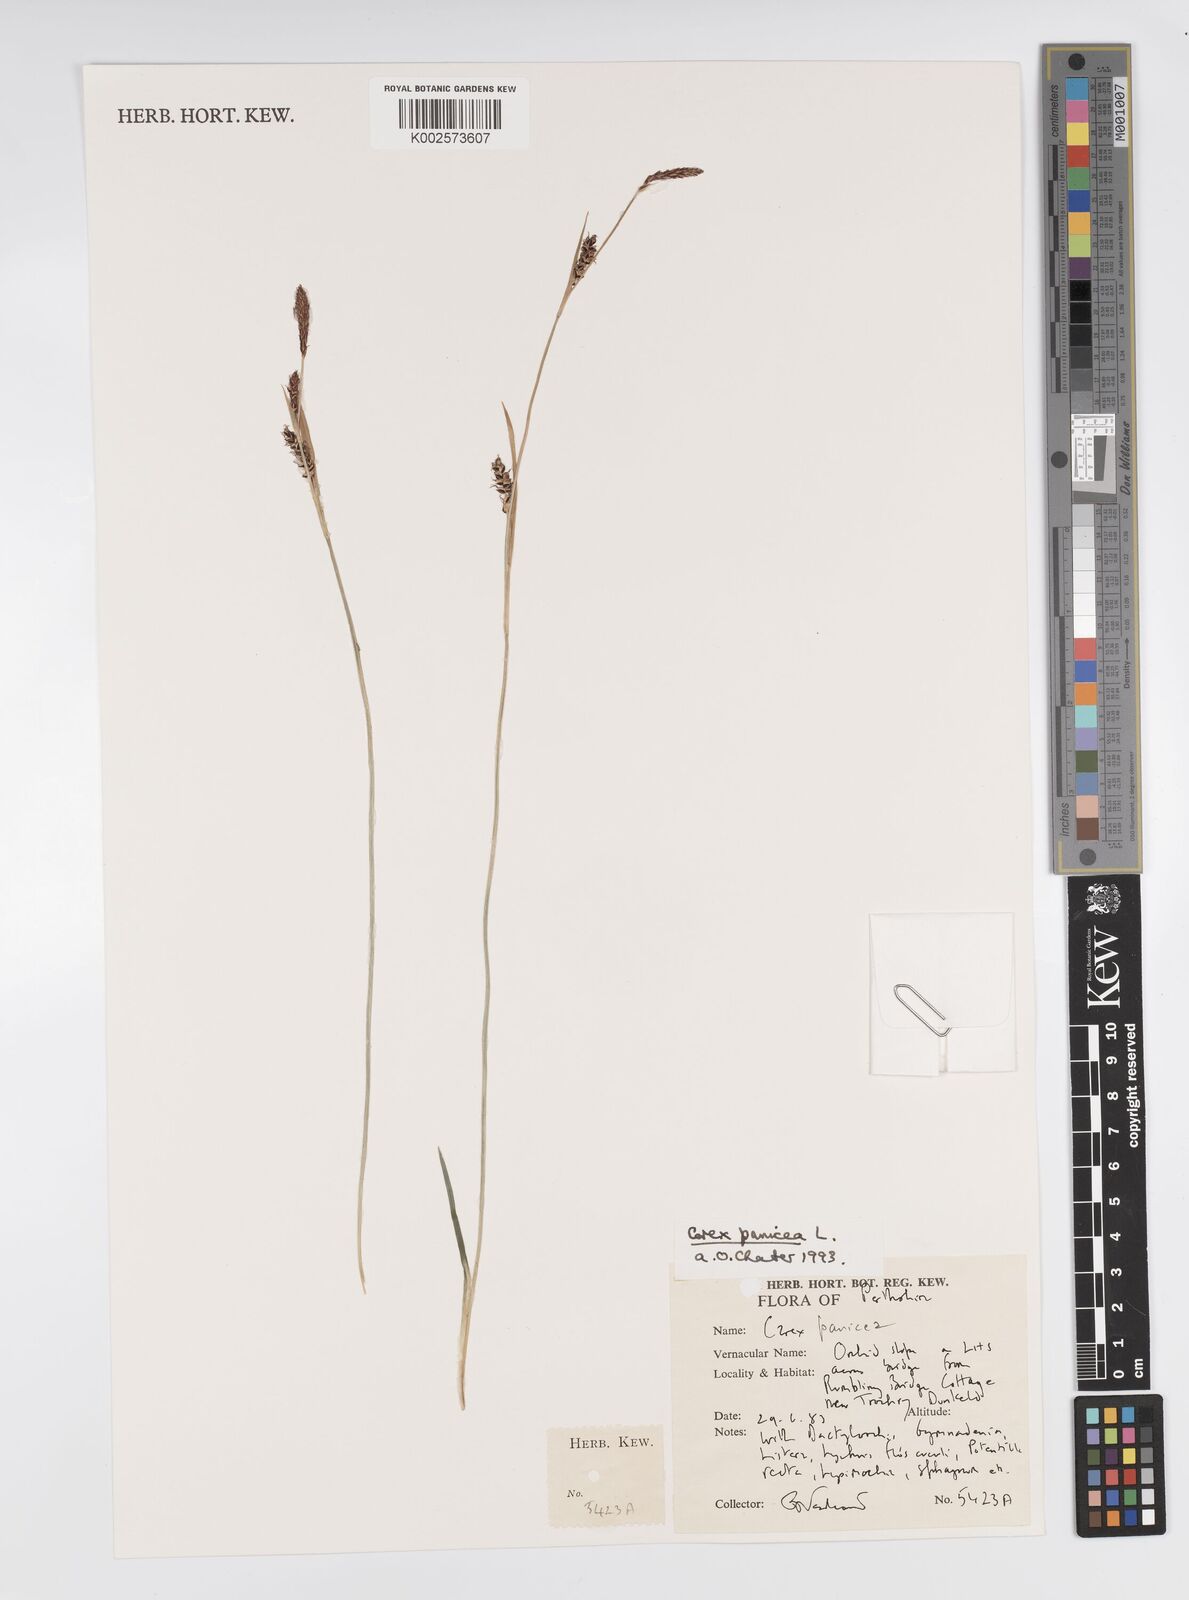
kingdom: Plantae
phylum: Tracheophyta
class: Liliopsida
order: Poales
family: Cyperaceae
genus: Carex
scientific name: Carex panicea
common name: Carnation sedge
